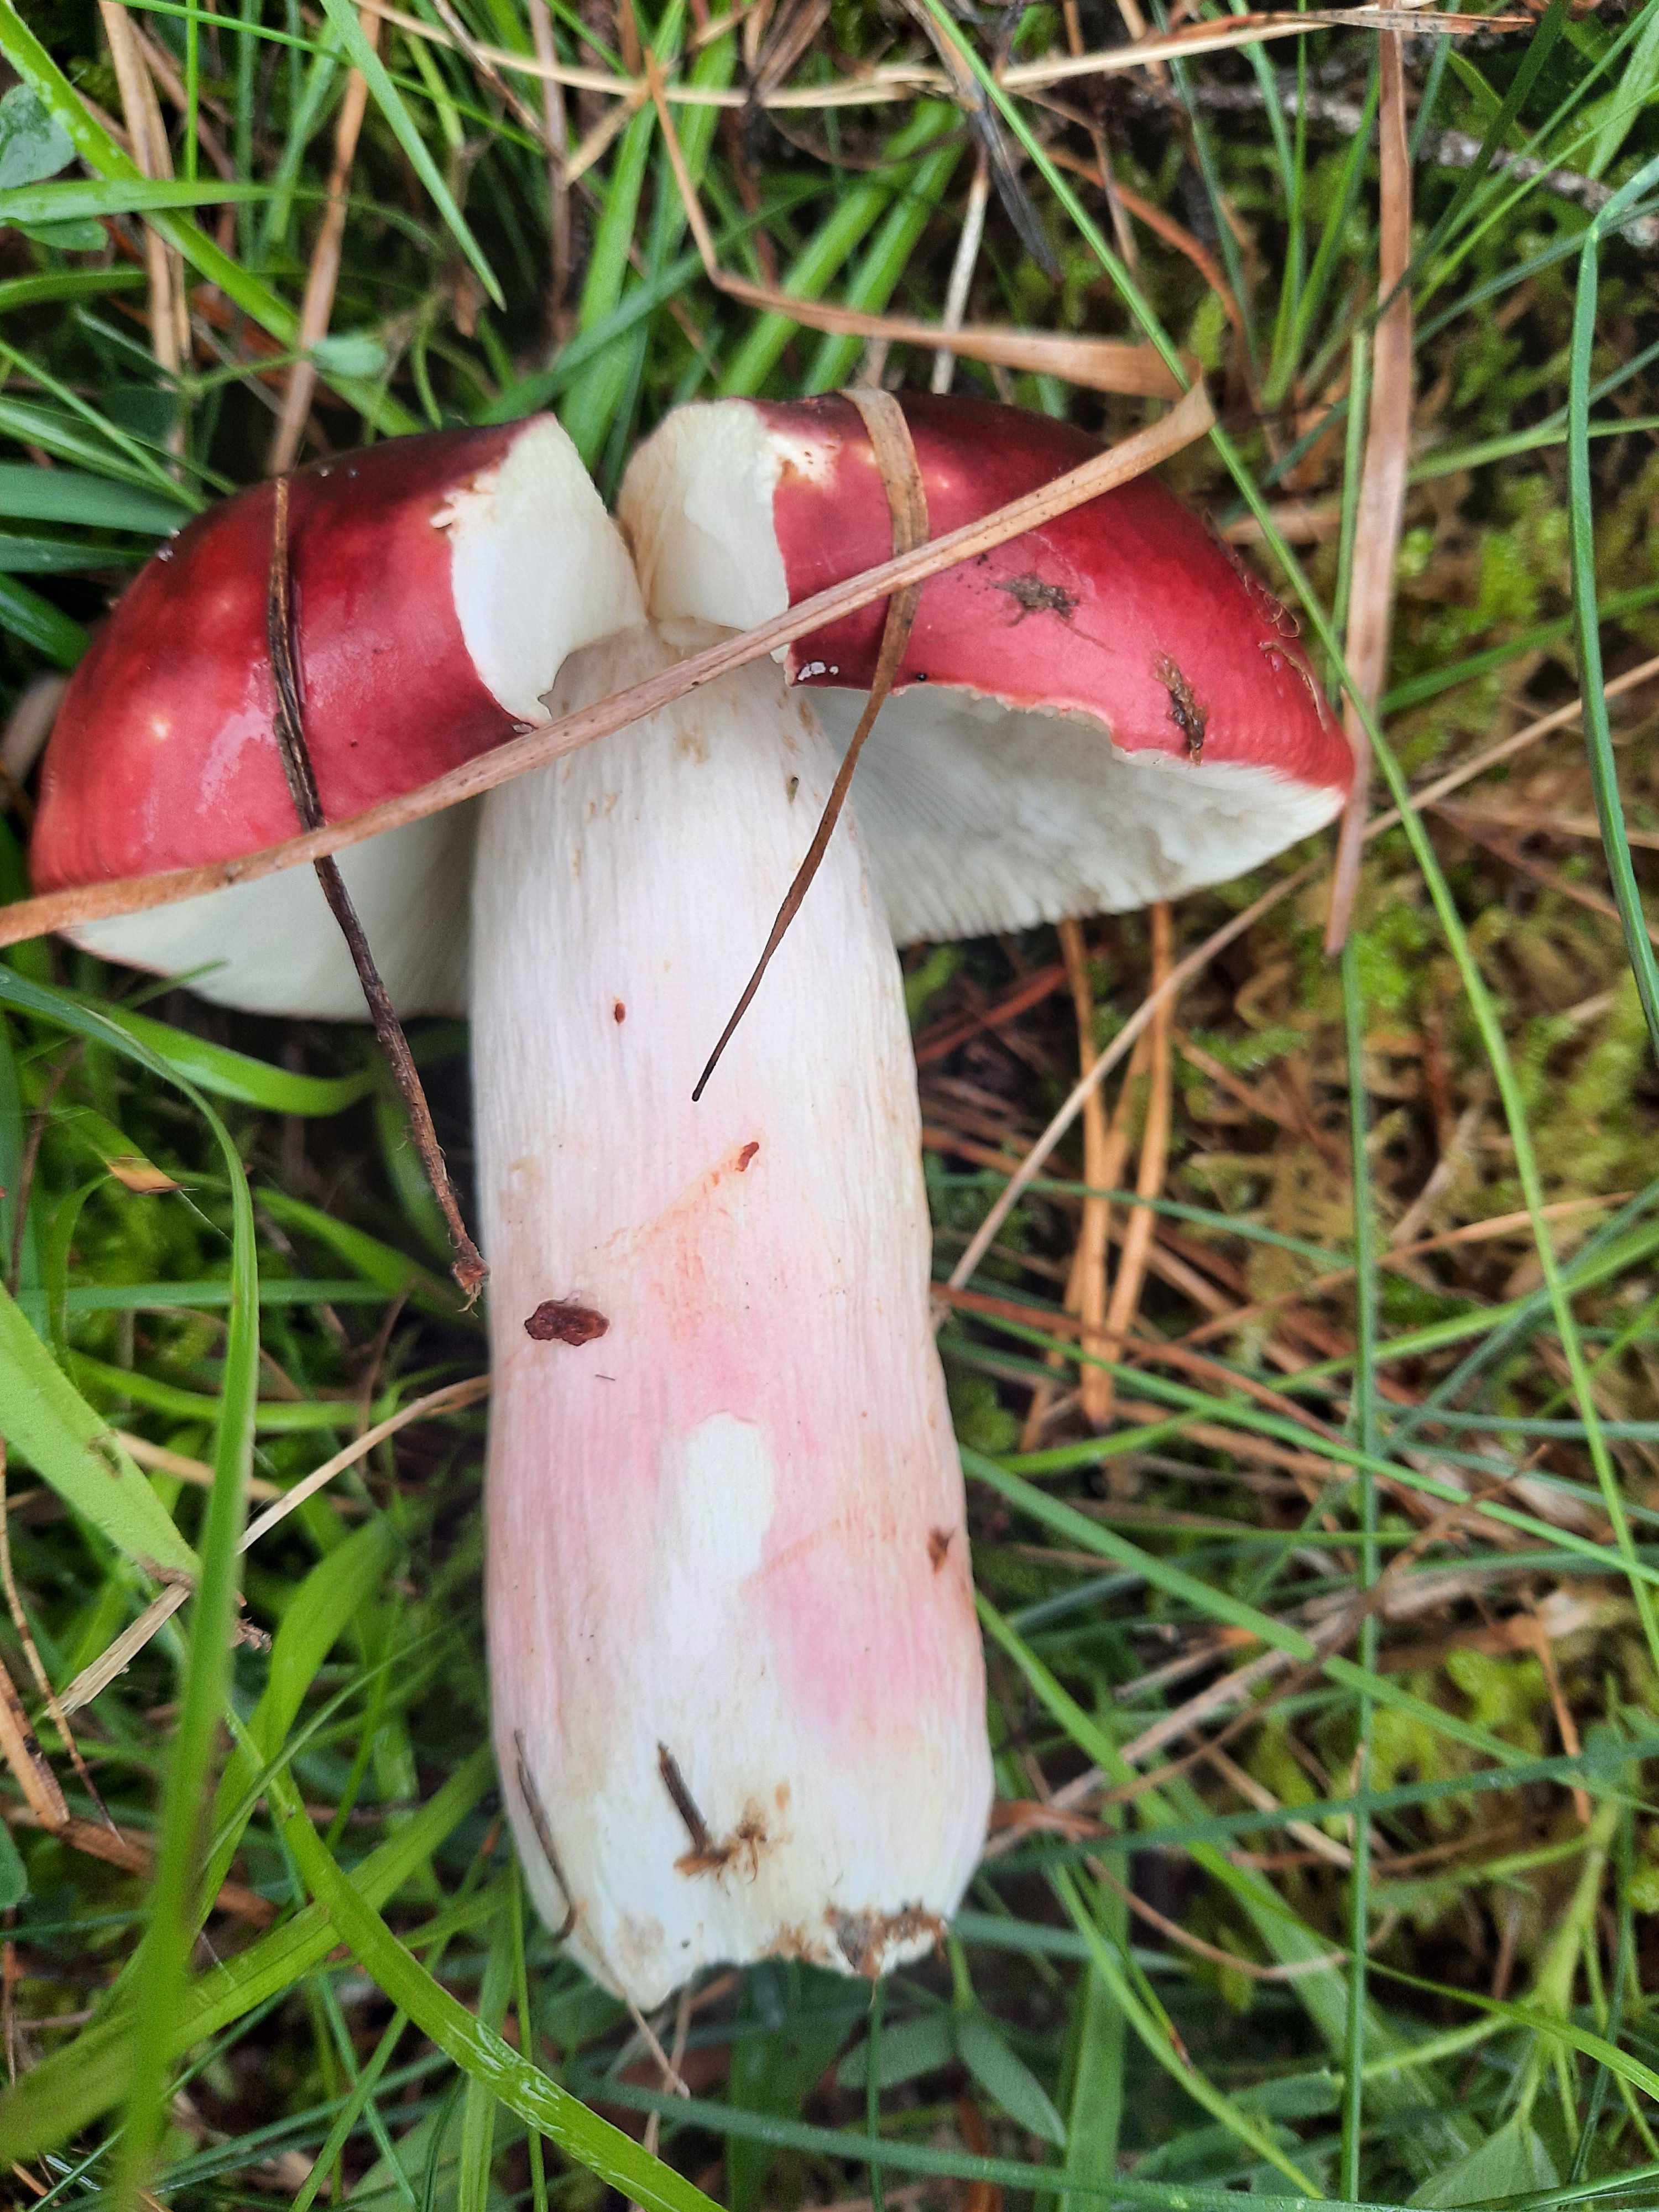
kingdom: Fungi
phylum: Basidiomycota
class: Agaricomycetes
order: Russulales
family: Russulaceae
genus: Russula
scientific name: Russula paludosa
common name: prægtig skørhat
